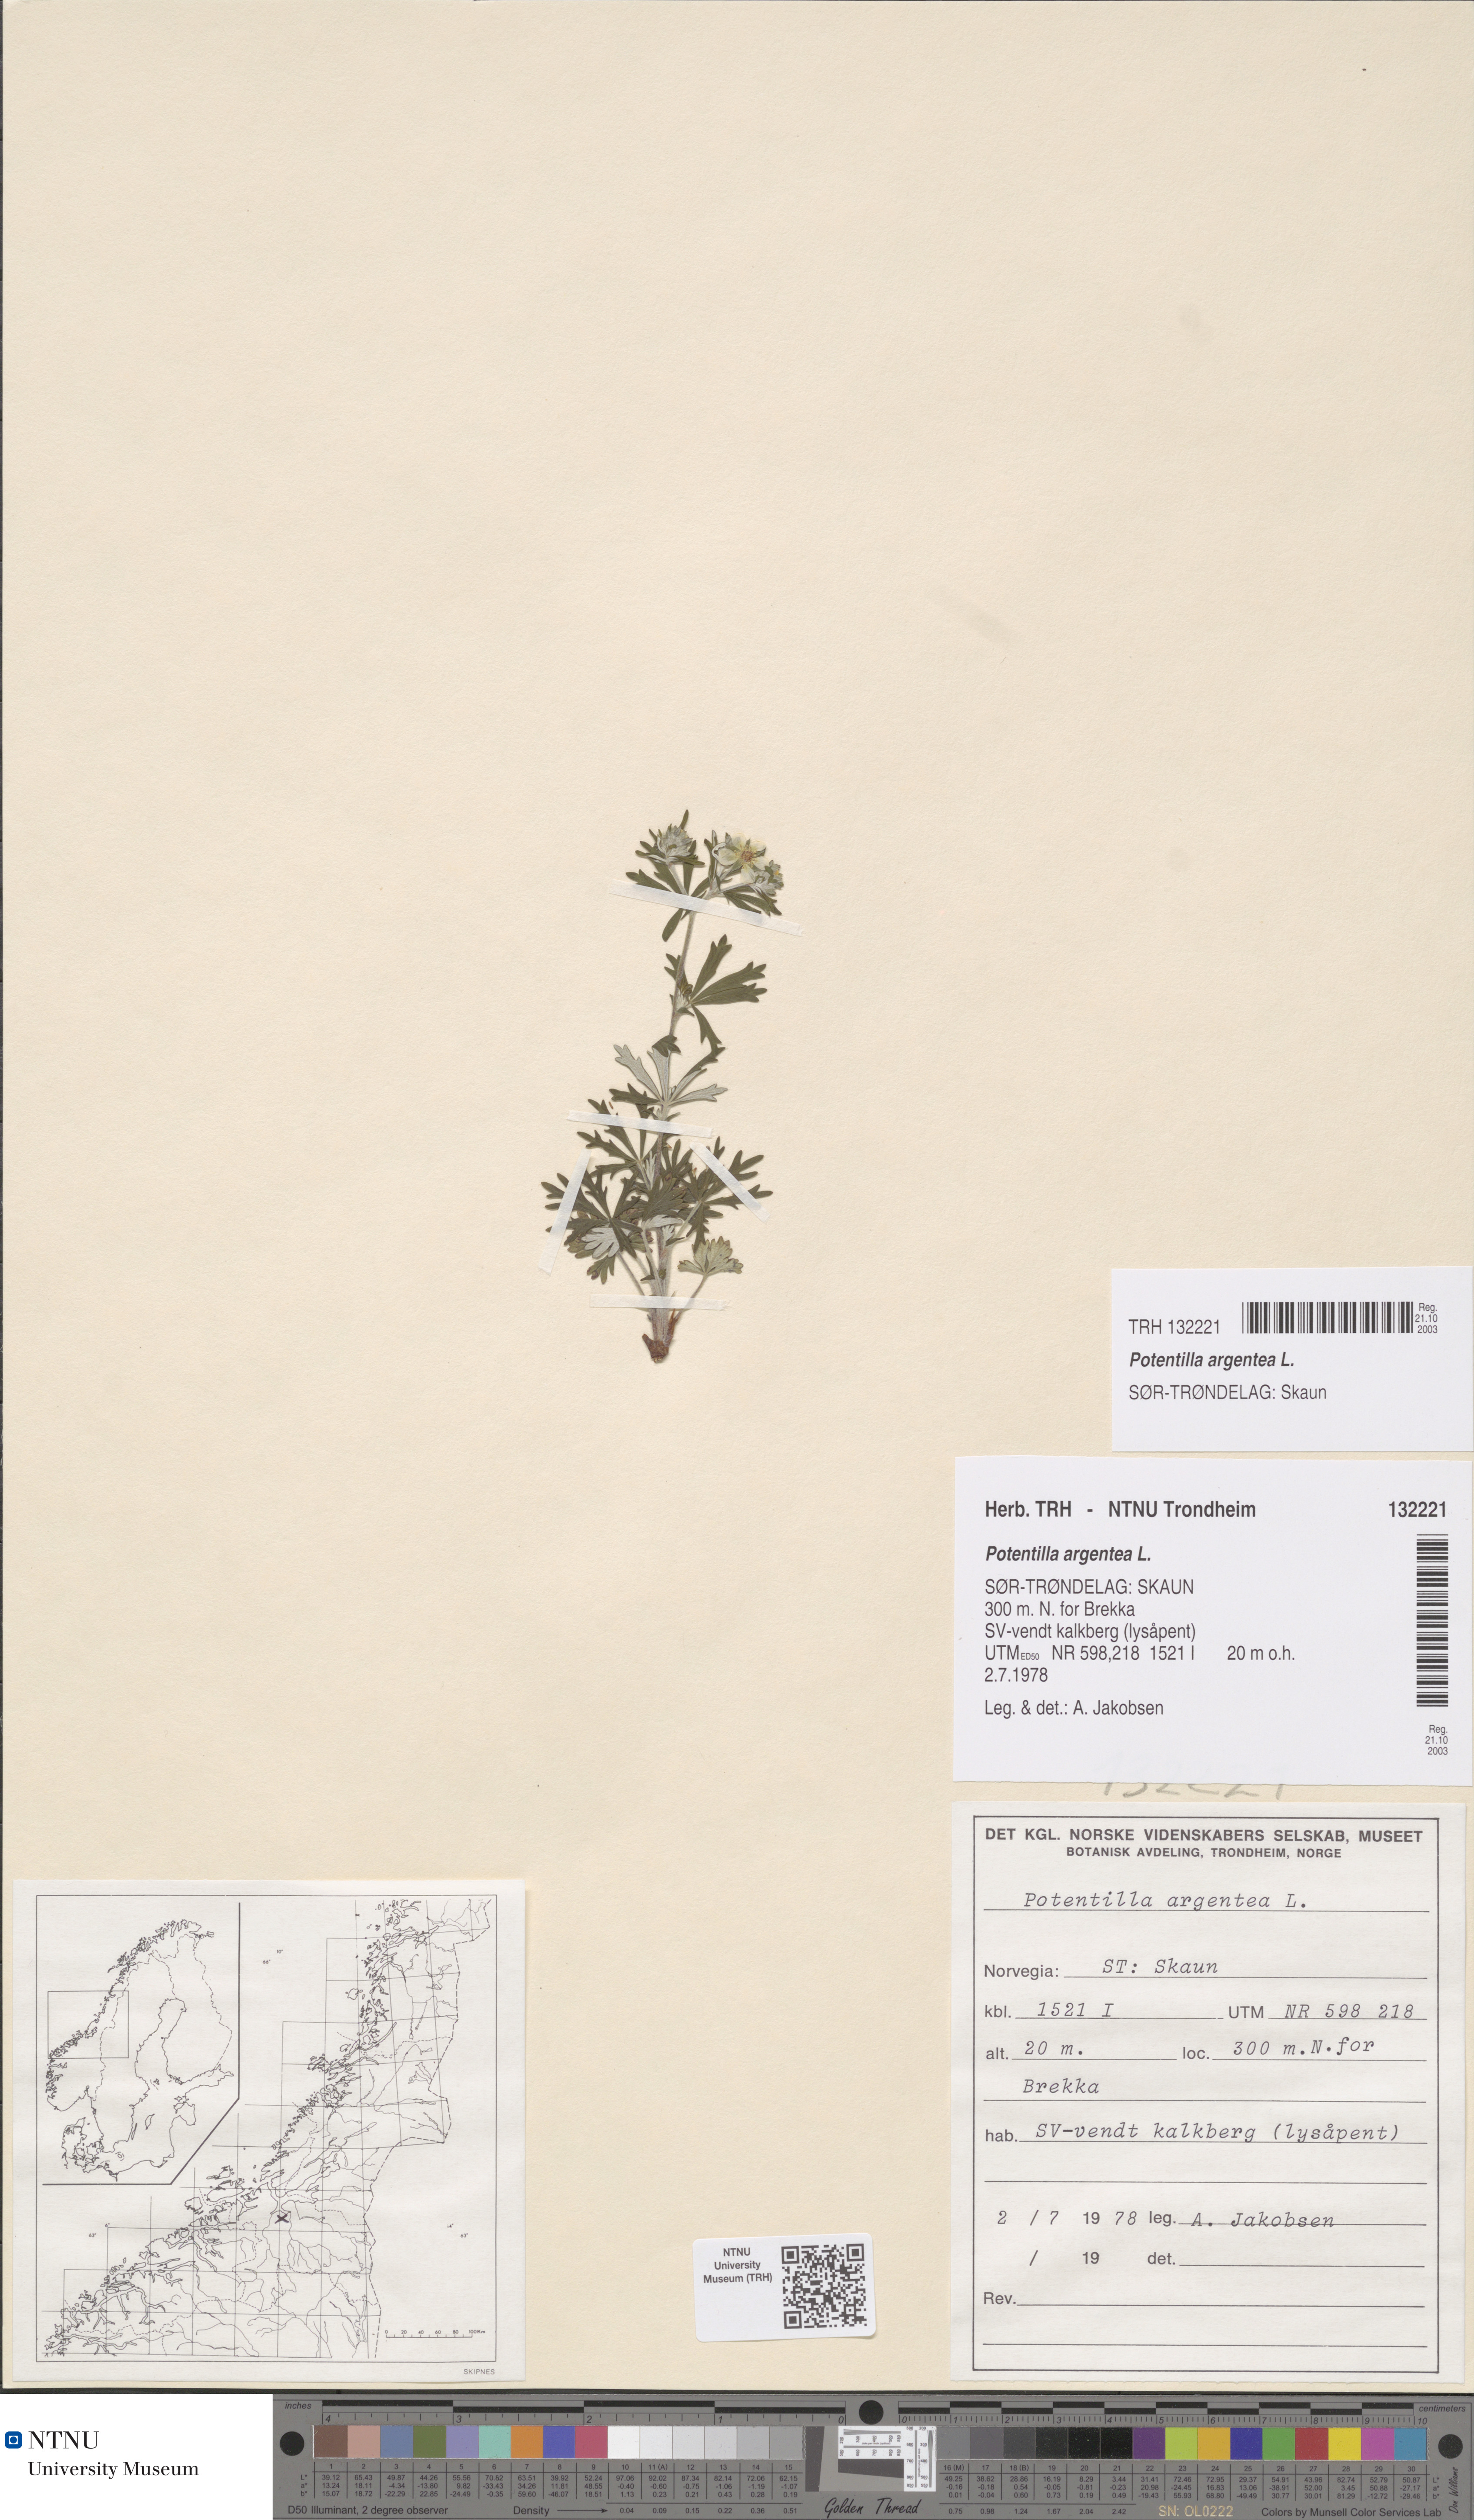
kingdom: Plantae
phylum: Tracheophyta
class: Magnoliopsida
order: Rosales
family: Rosaceae
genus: Potentilla
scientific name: Potentilla argentea
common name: Hoary cinquefoil
